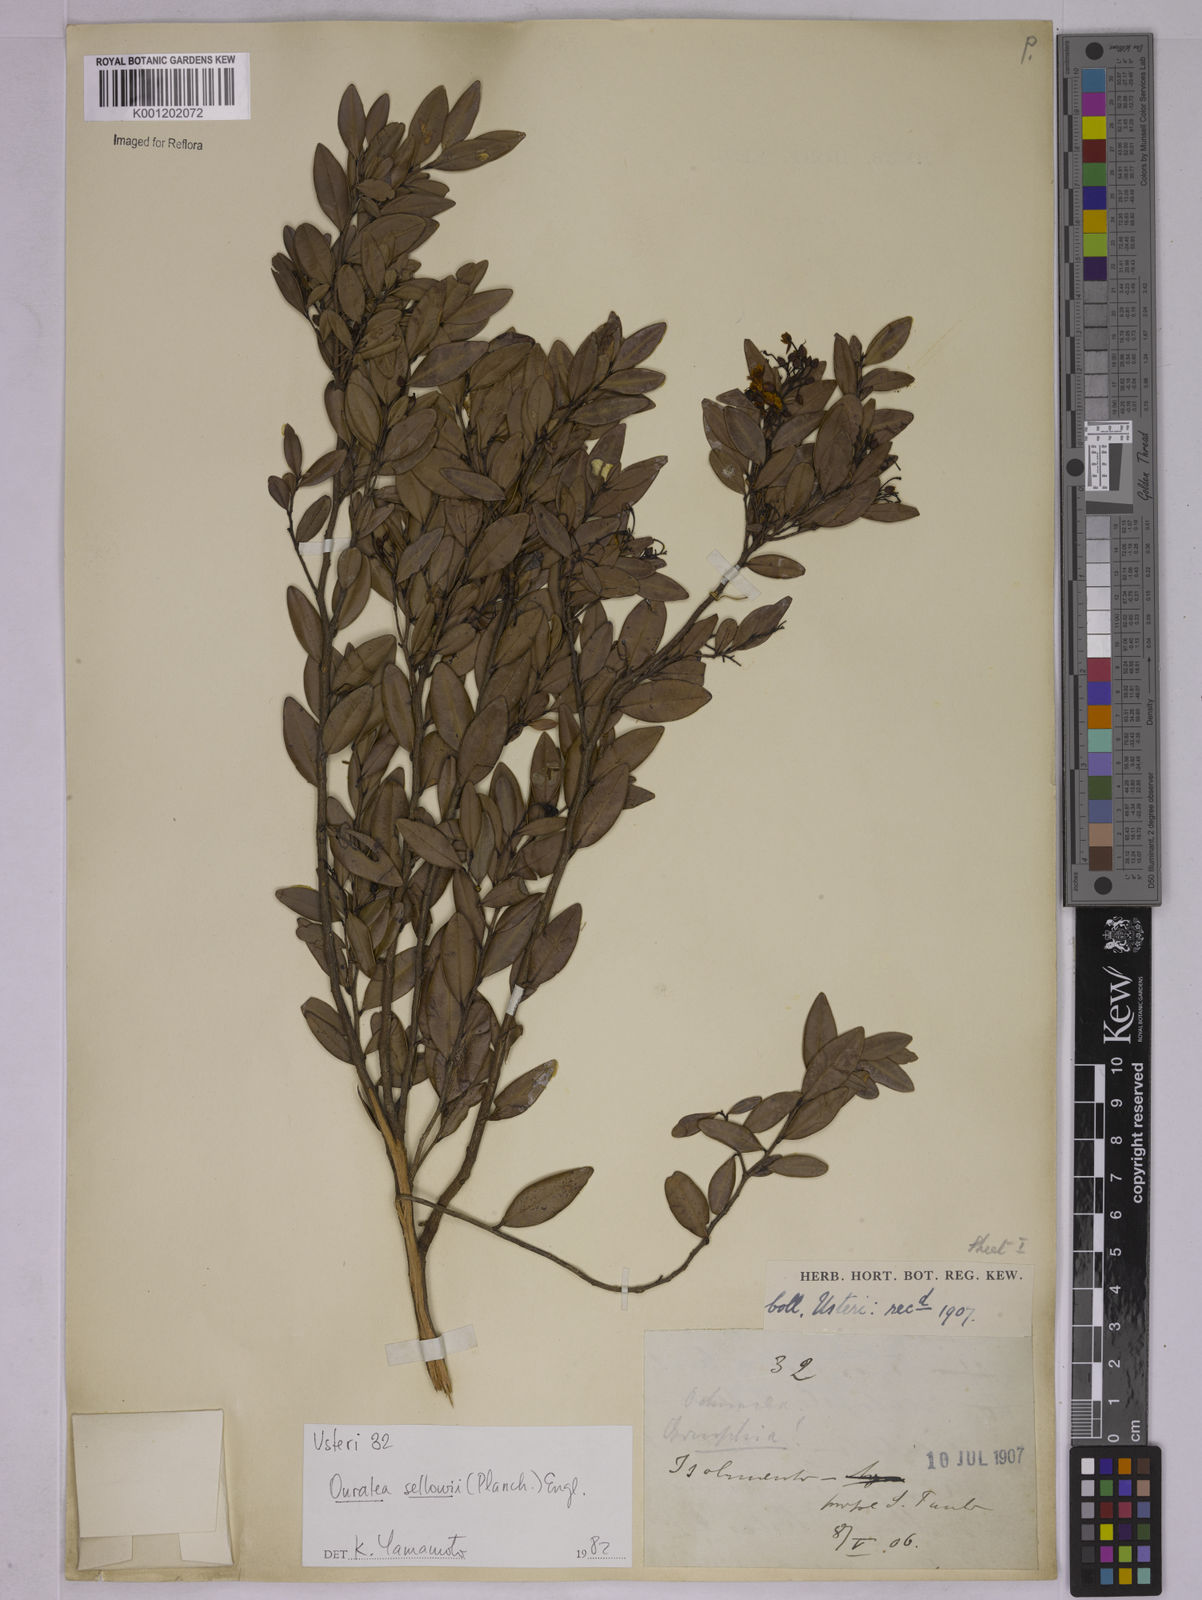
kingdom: Plantae
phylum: Tracheophyta
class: Magnoliopsida
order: Malpighiales
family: Ochnaceae
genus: Ouratea
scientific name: Ouratea sellowii
